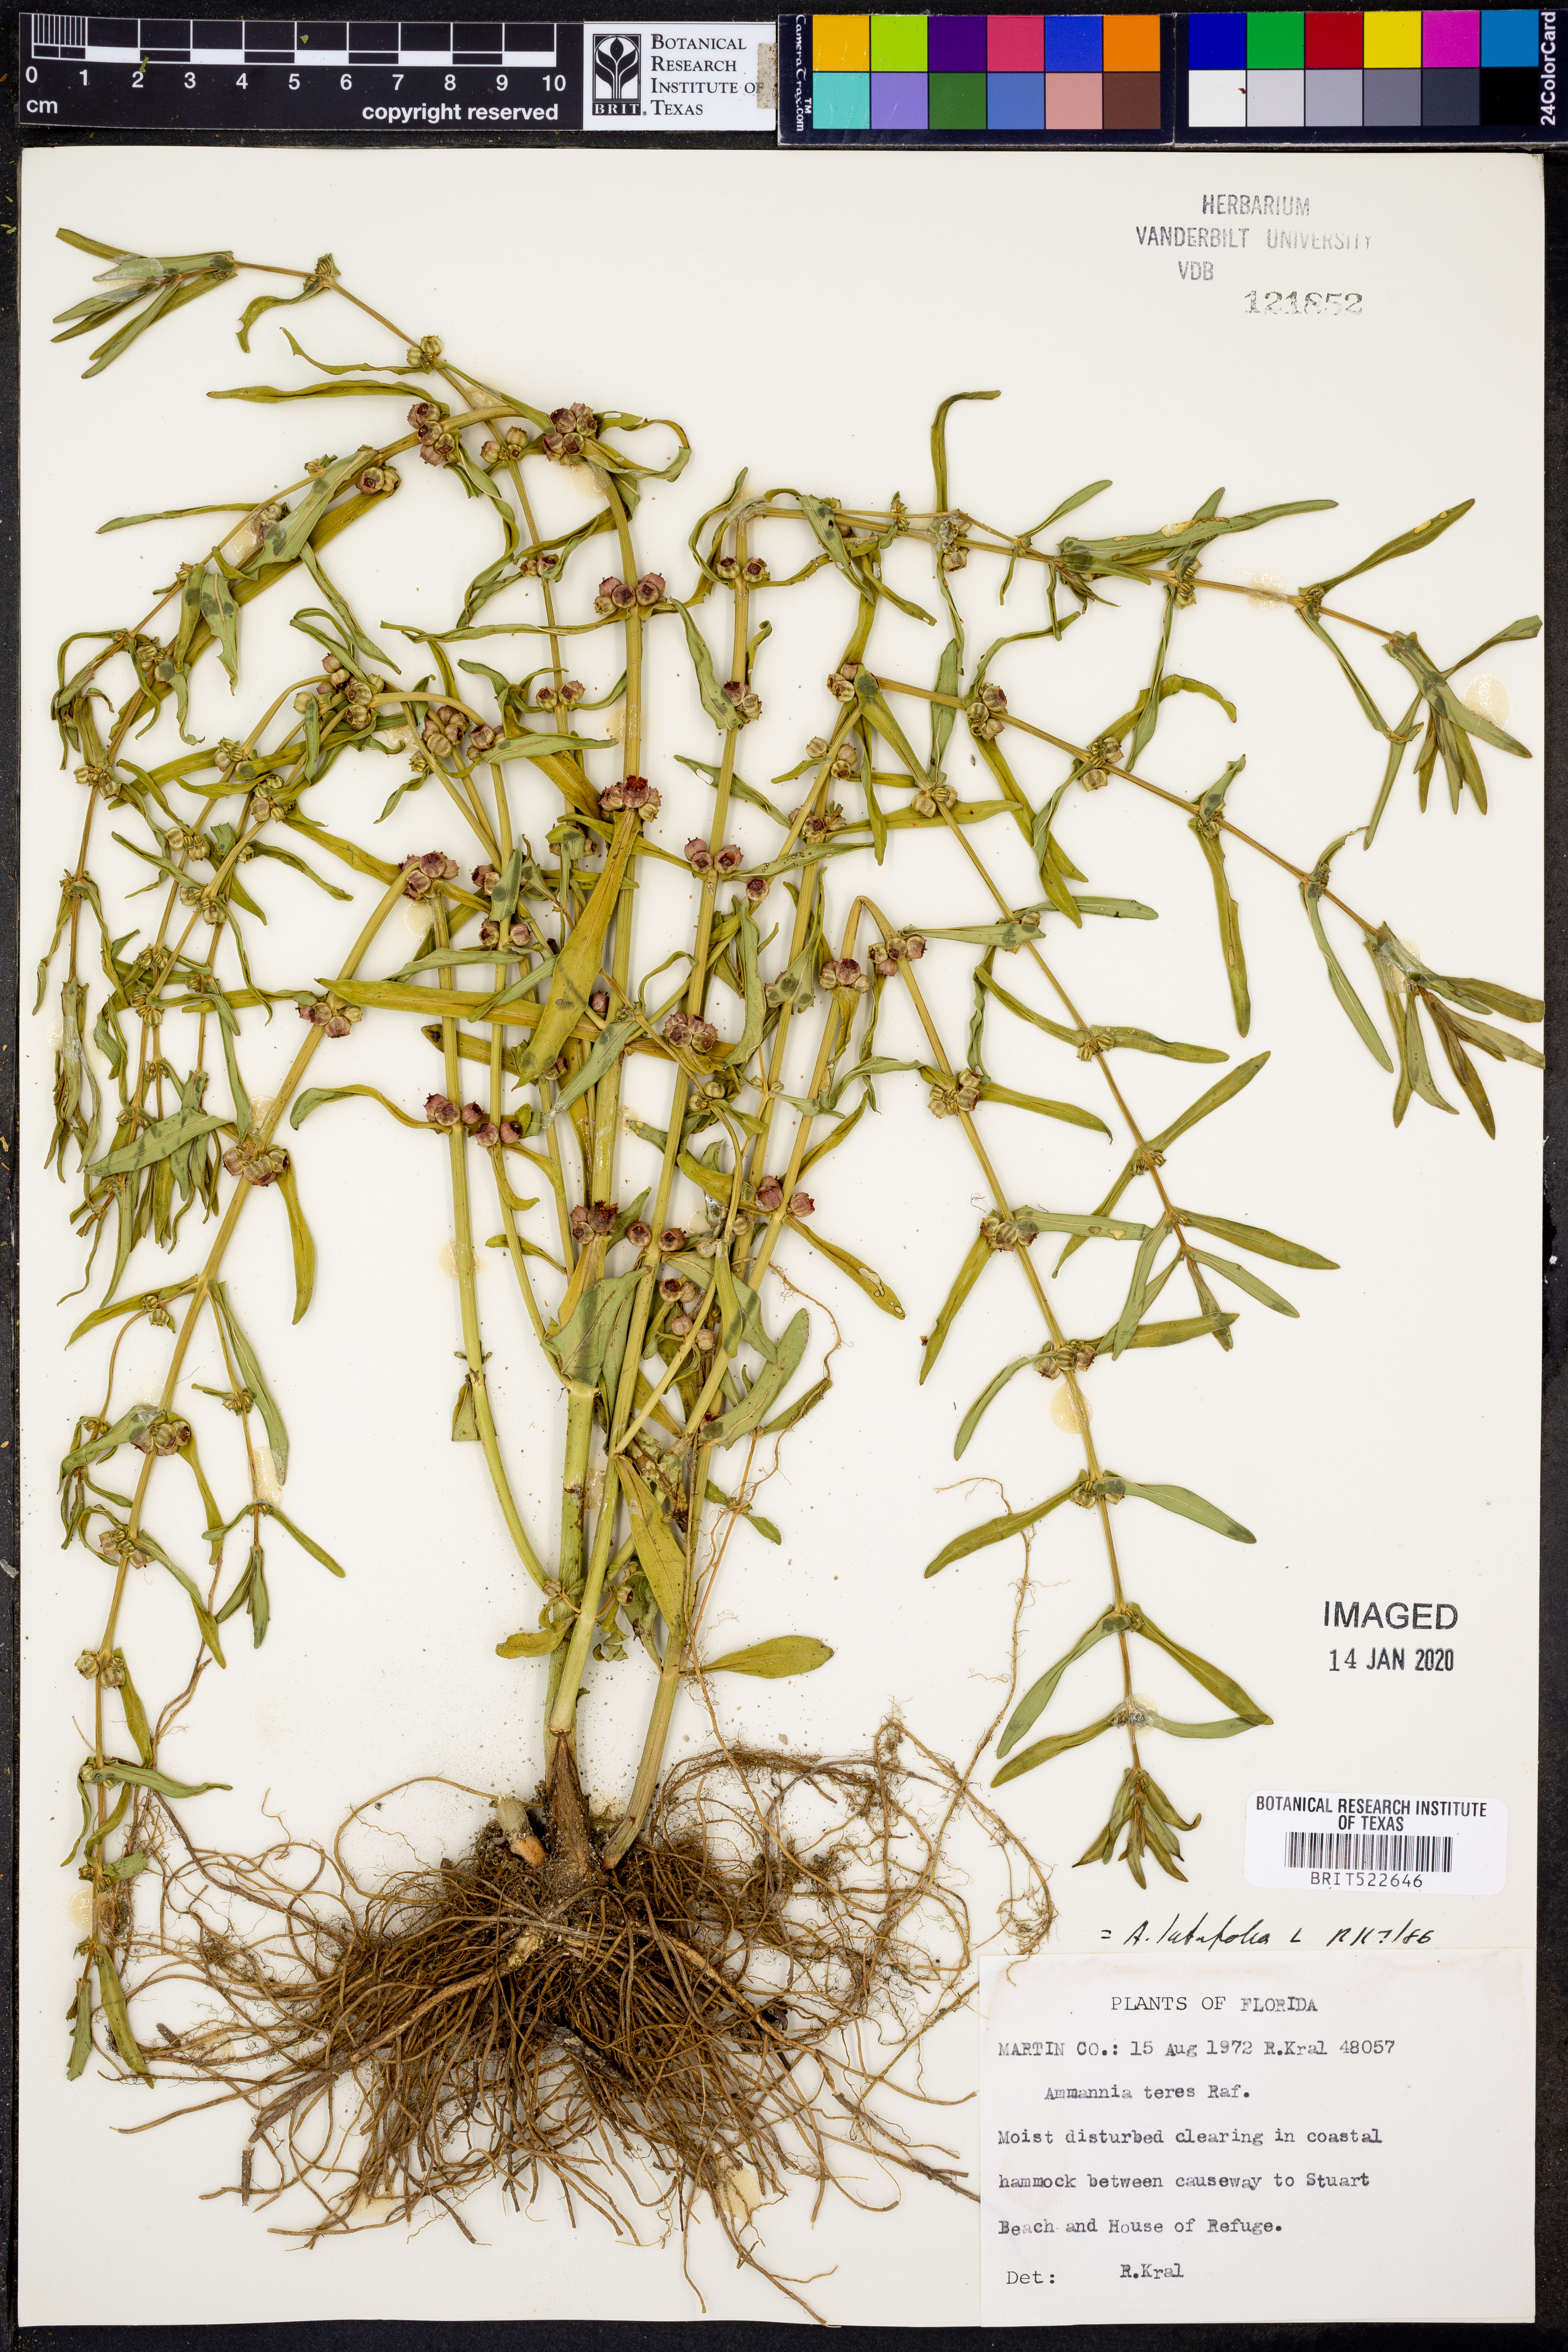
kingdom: Plantae
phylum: Tracheophyta
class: Magnoliopsida
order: Myrtales
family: Lythraceae
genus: Ammannia
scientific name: Ammannia latifolia
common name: Toothcup
